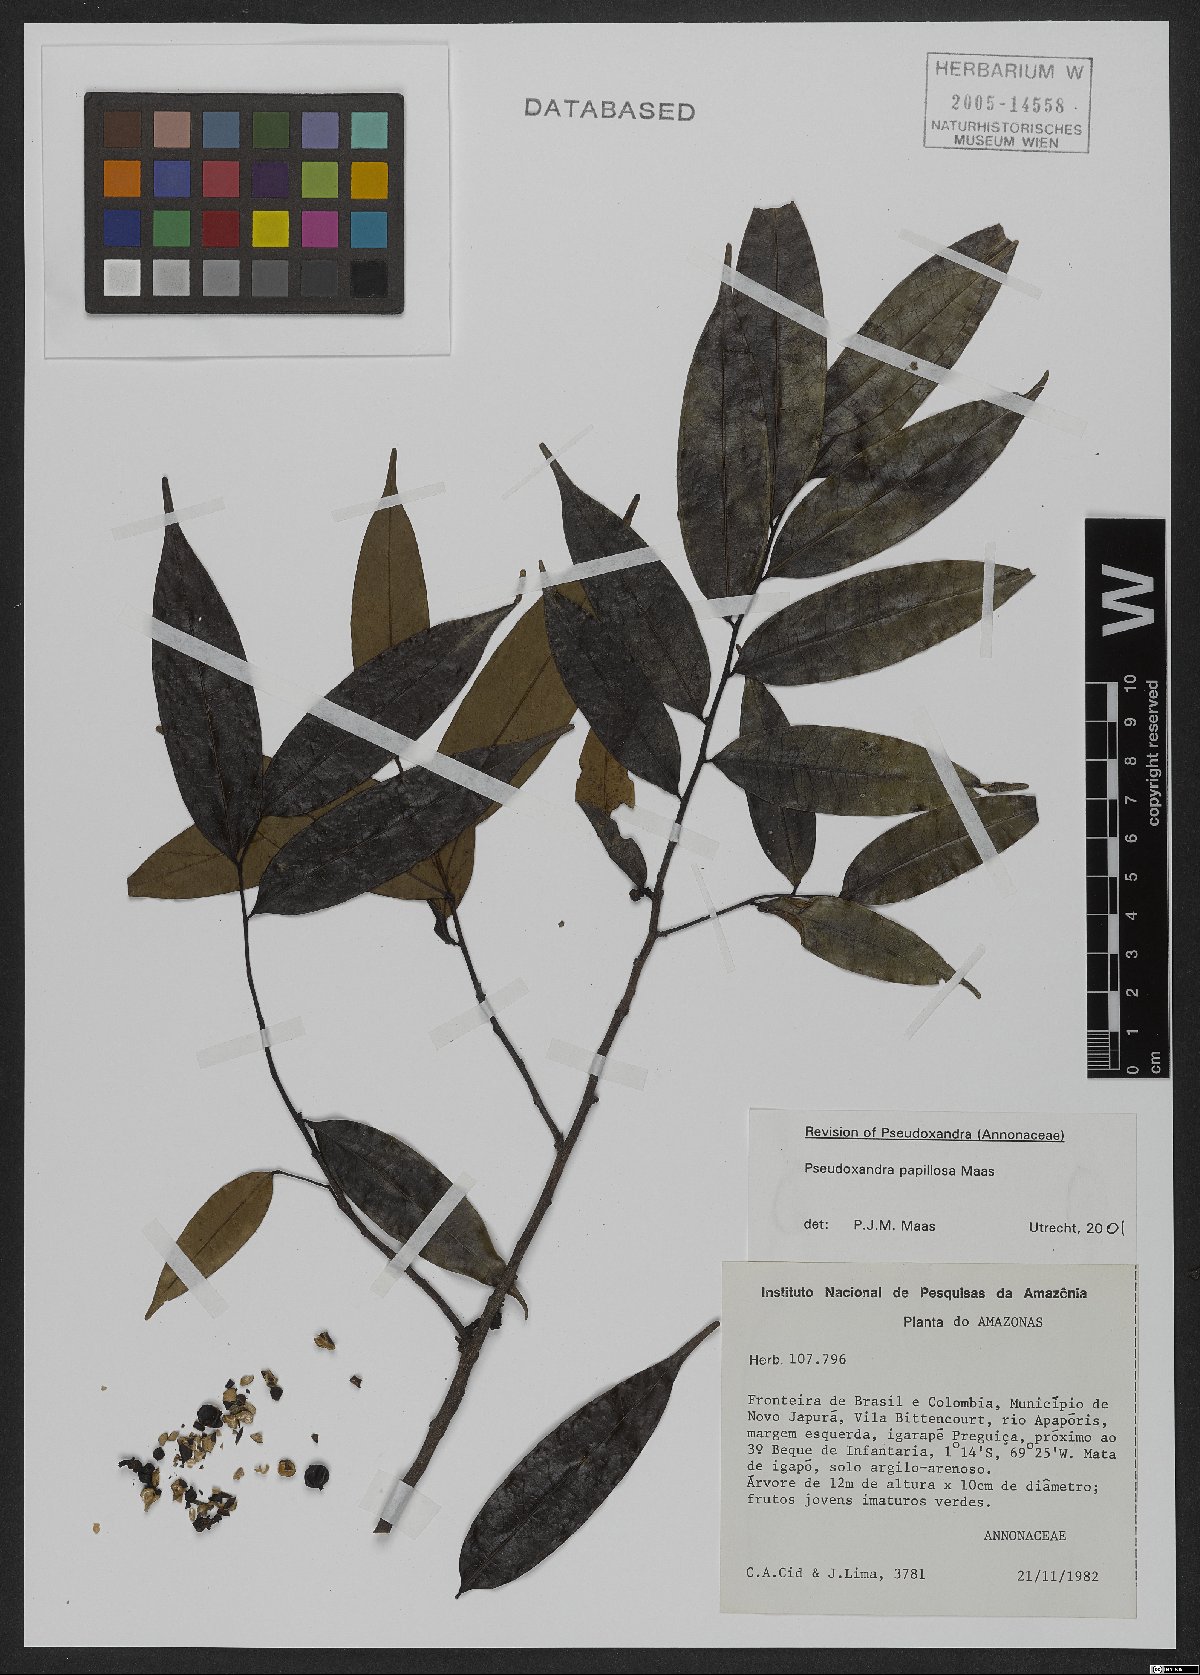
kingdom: Plantae
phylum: Tracheophyta
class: Magnoliopsida
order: Magnoliales
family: Annonaceae
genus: Pseudoxandra
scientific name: Pseudoxandra papillosa
